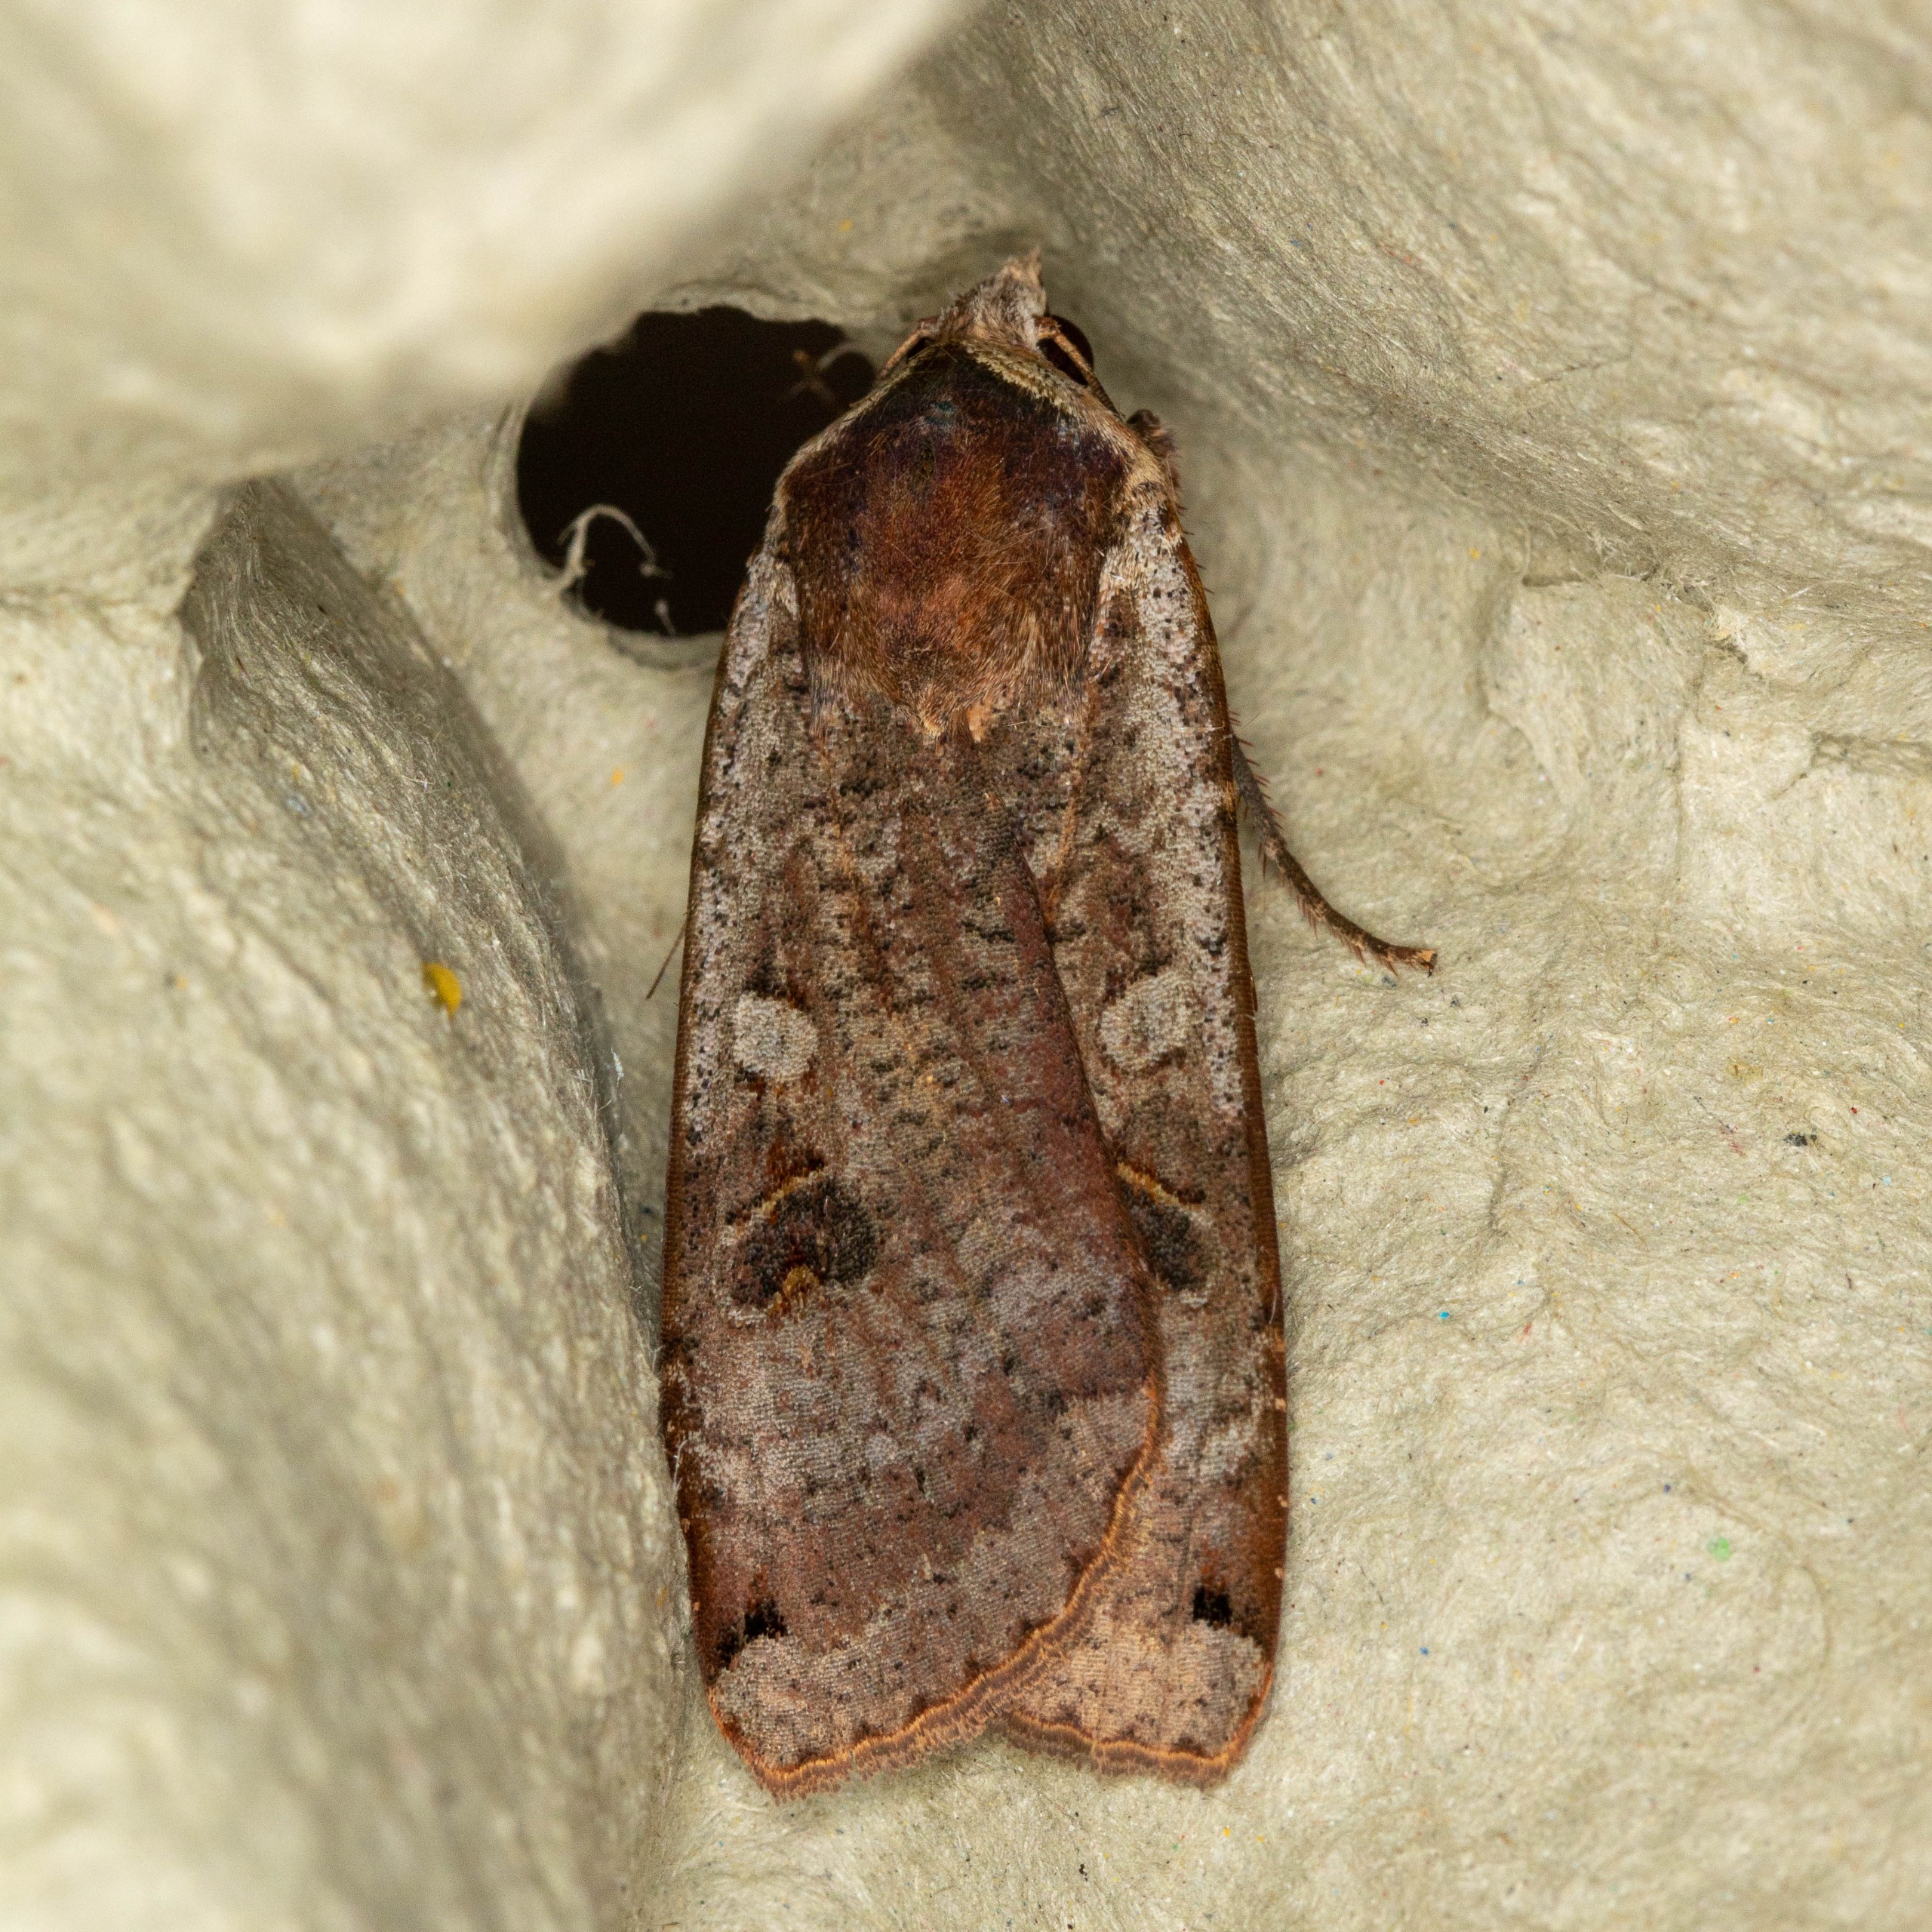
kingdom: Animalia
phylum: Arthropoda
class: Insecta
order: Lepidoptera
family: Noctuidae
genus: Noctua
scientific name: Noctua pronuba
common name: Stor smutugle
